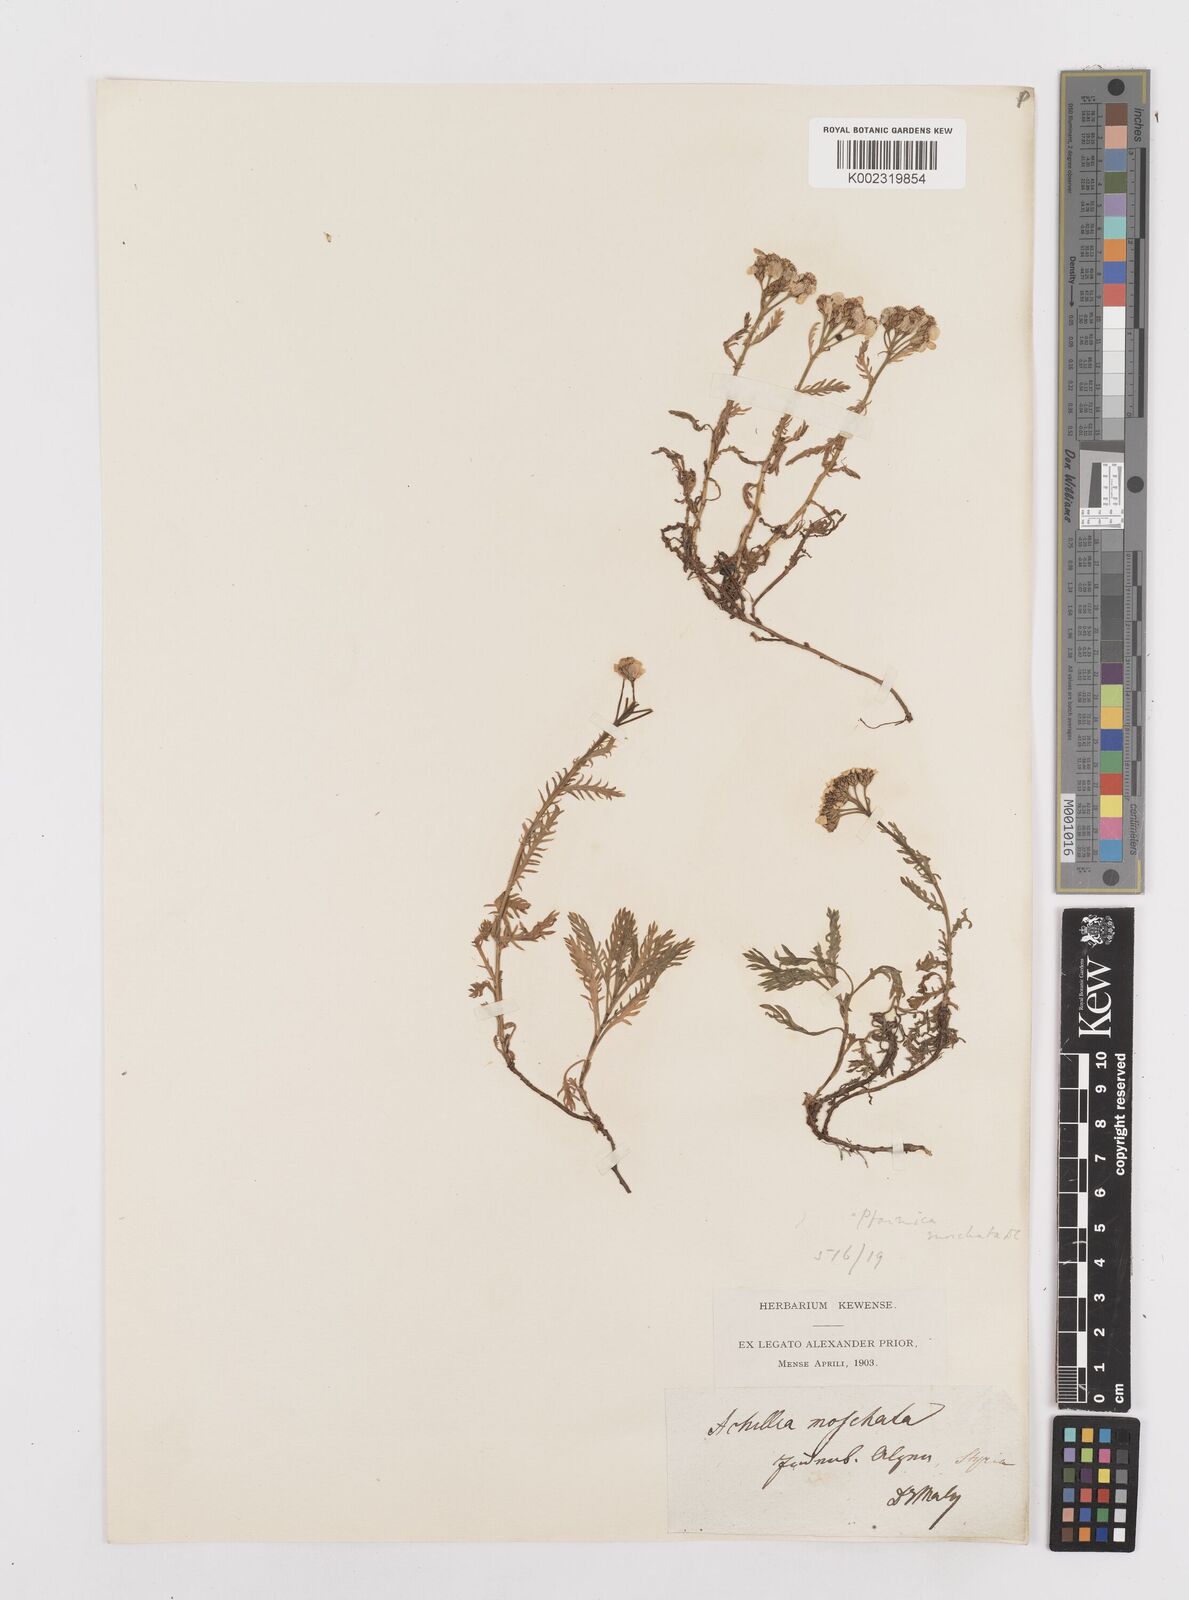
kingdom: Plantae
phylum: Tracheophyta
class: Magnoliopsida
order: Asterales
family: Asteraceae
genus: Achillea
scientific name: Achillea erba-rotta
